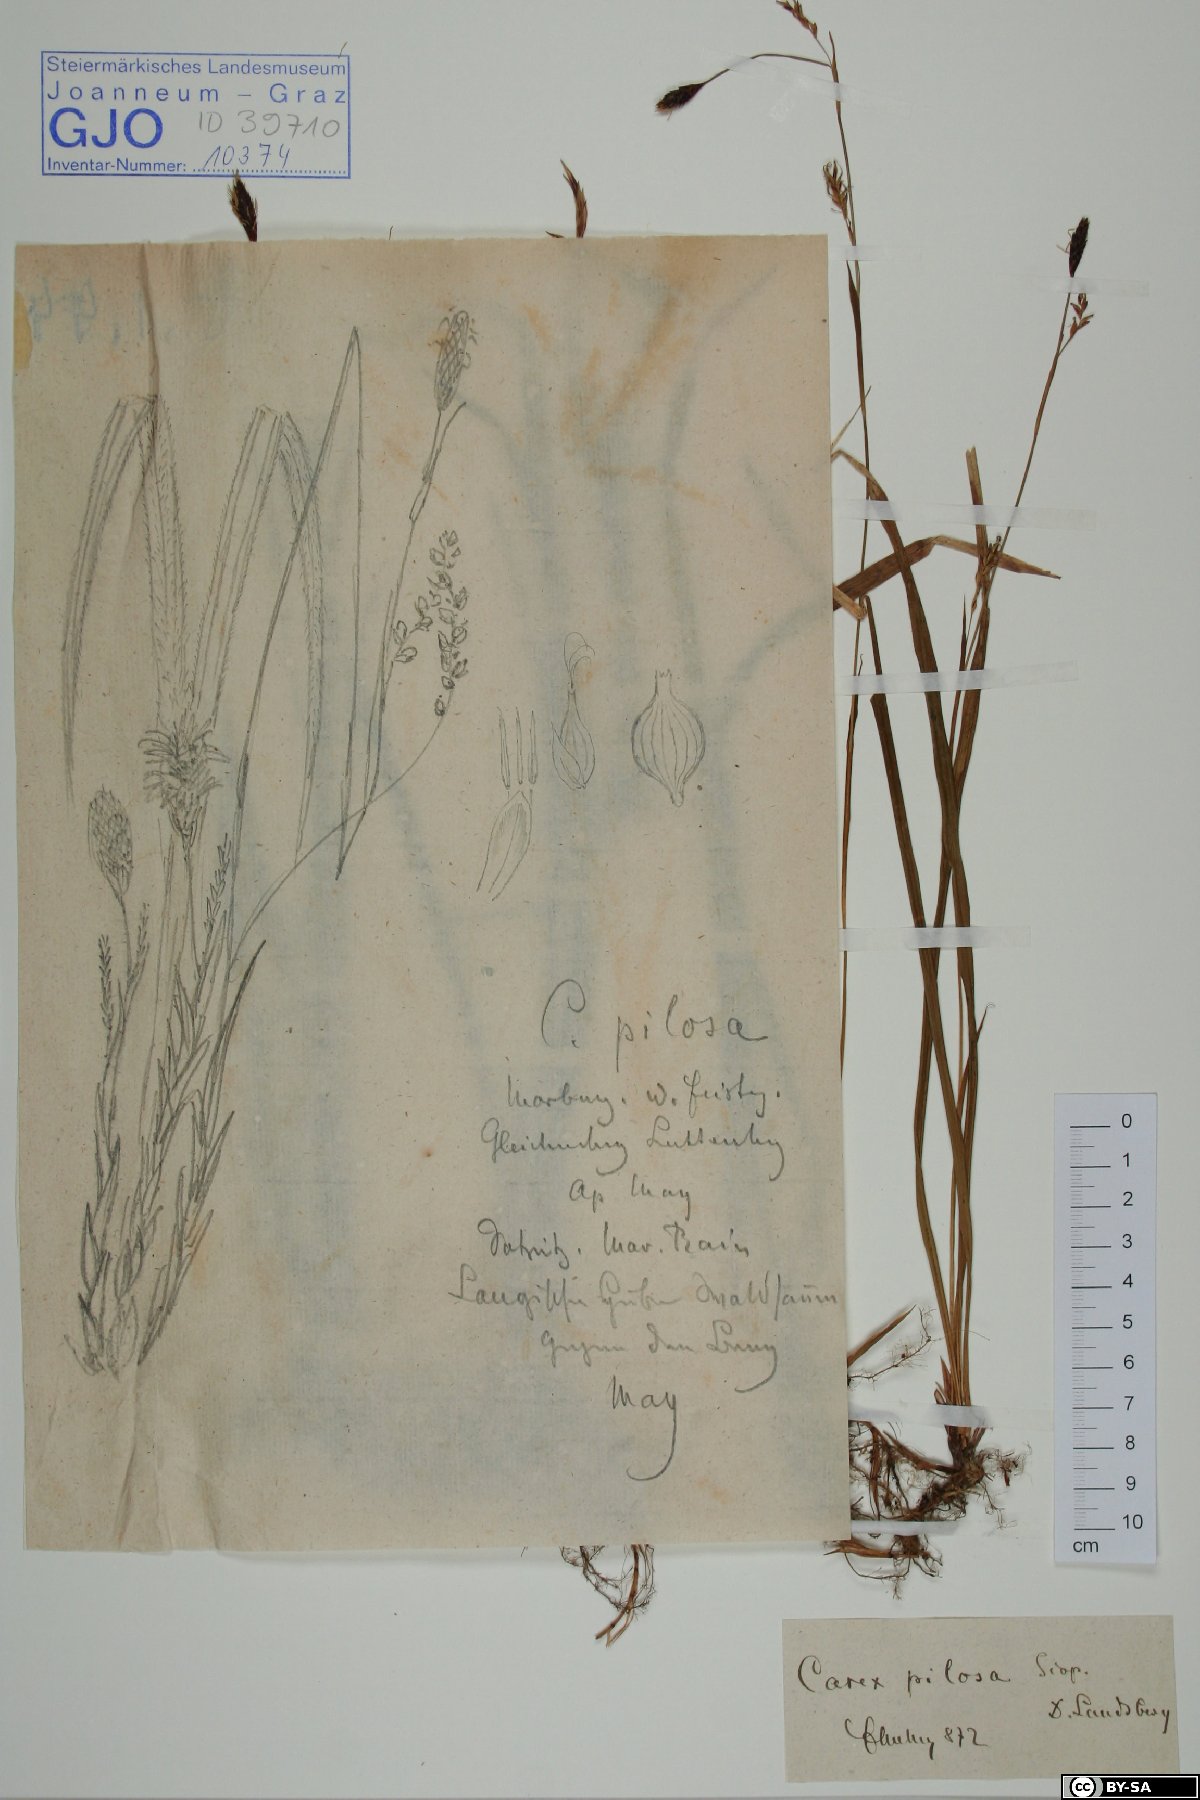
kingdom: Plantae
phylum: Tracheophyta
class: Liliopsida
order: Poales
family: Cyperaceae
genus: Carex
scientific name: Carex pilosa
